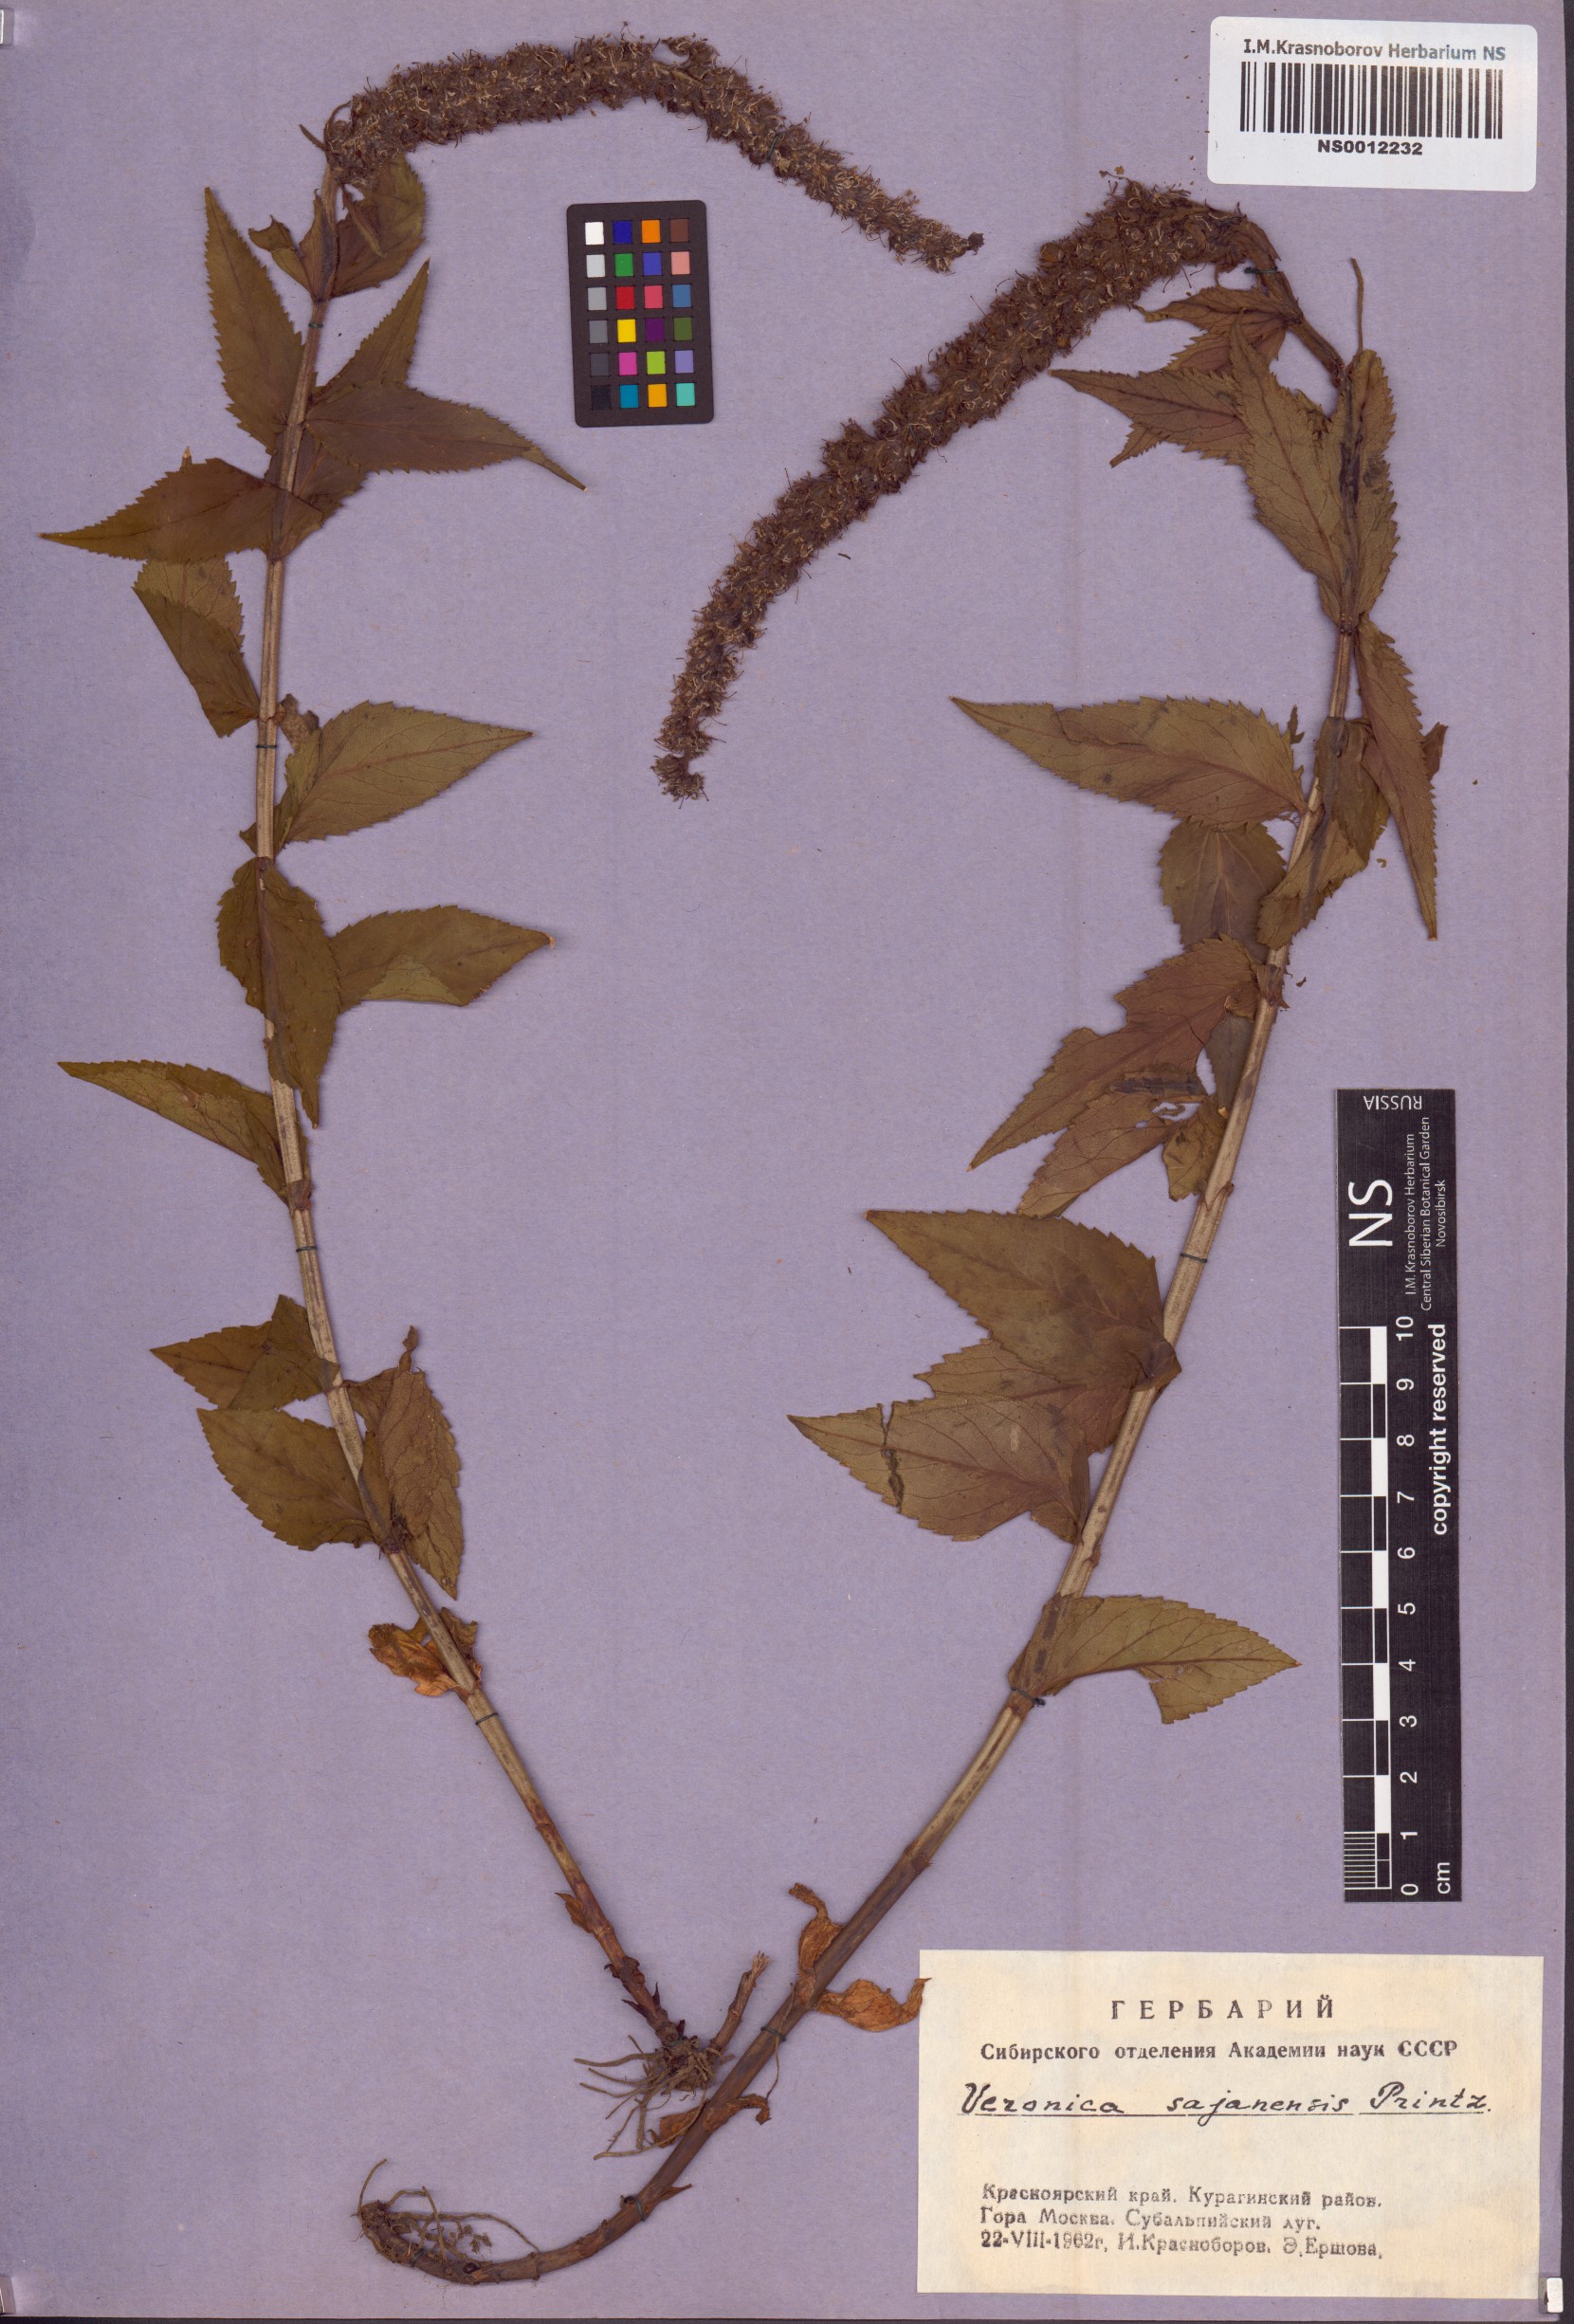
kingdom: Plantae
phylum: Tracheophyta
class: Magnoliopsida
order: Lamiales
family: Plantaginaceae
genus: Veronica
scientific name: Veronica sajanensis
